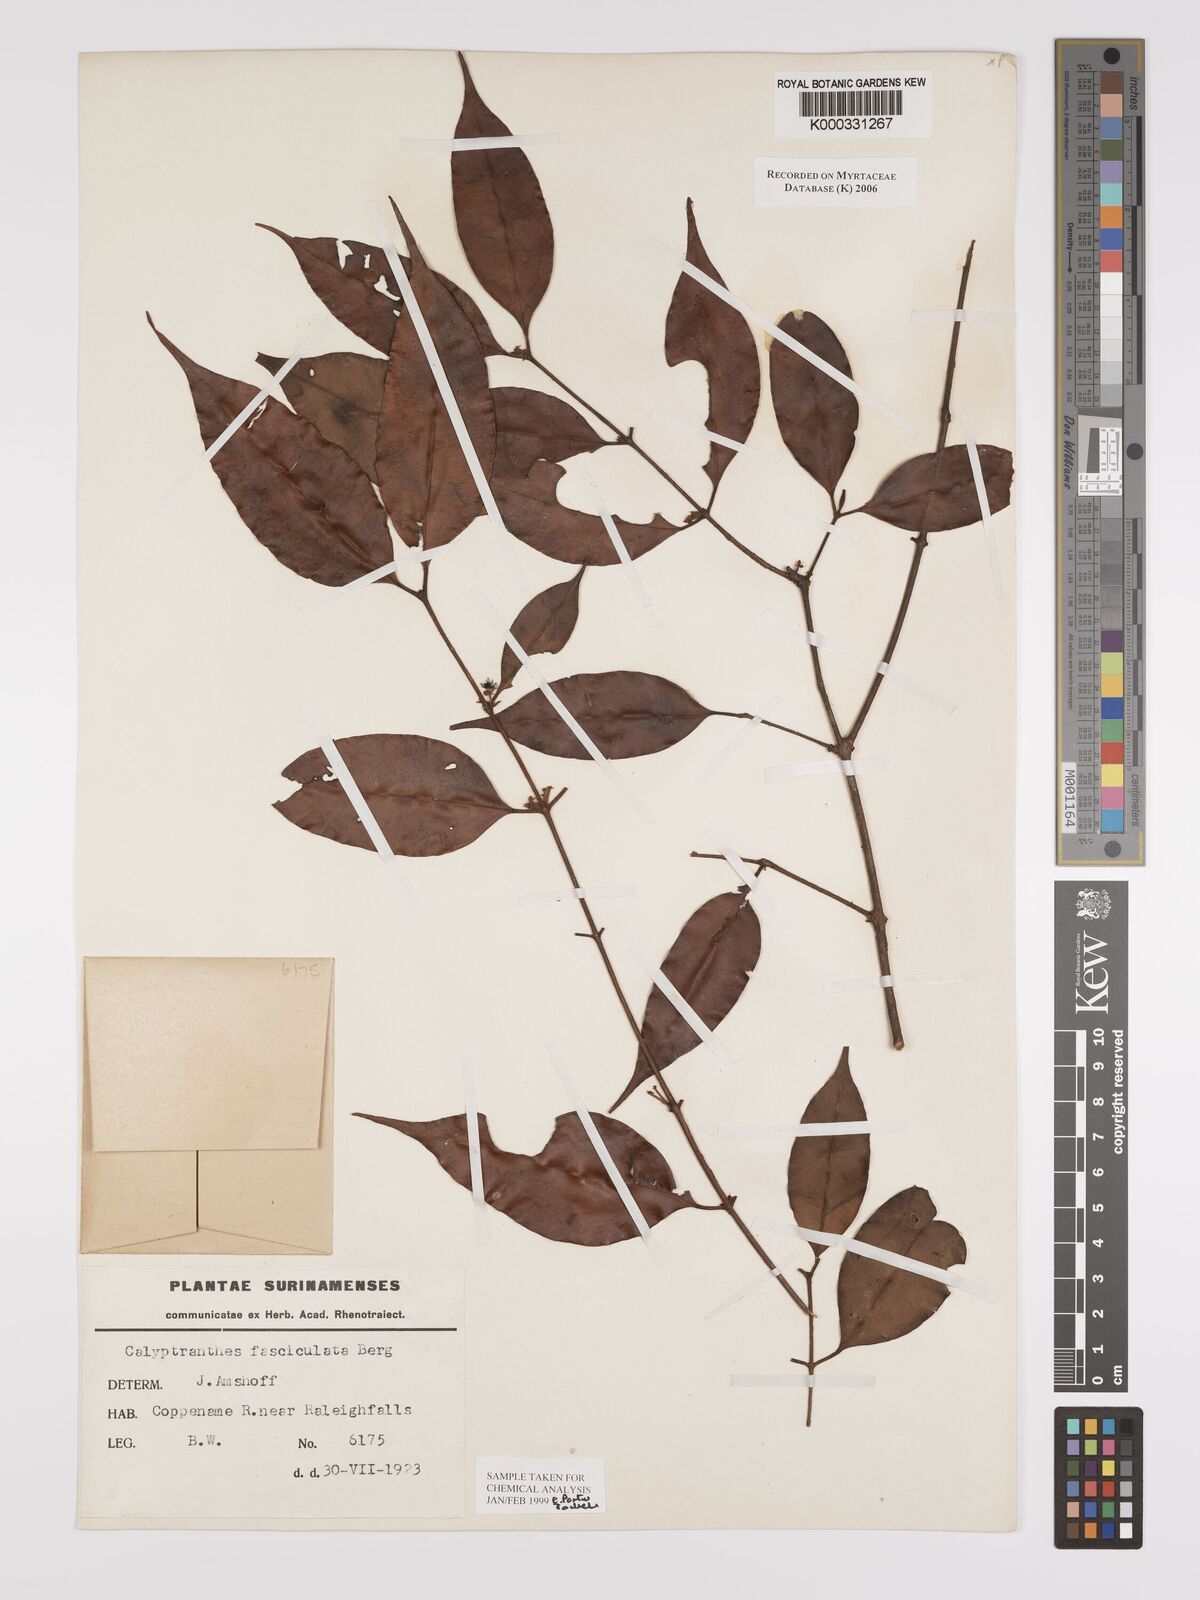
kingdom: Plantae
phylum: Tracheophyta
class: Magnoliopsida
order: Myrtales
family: Myrtaceae
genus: Myrcia
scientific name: Myrcia fasciculata
